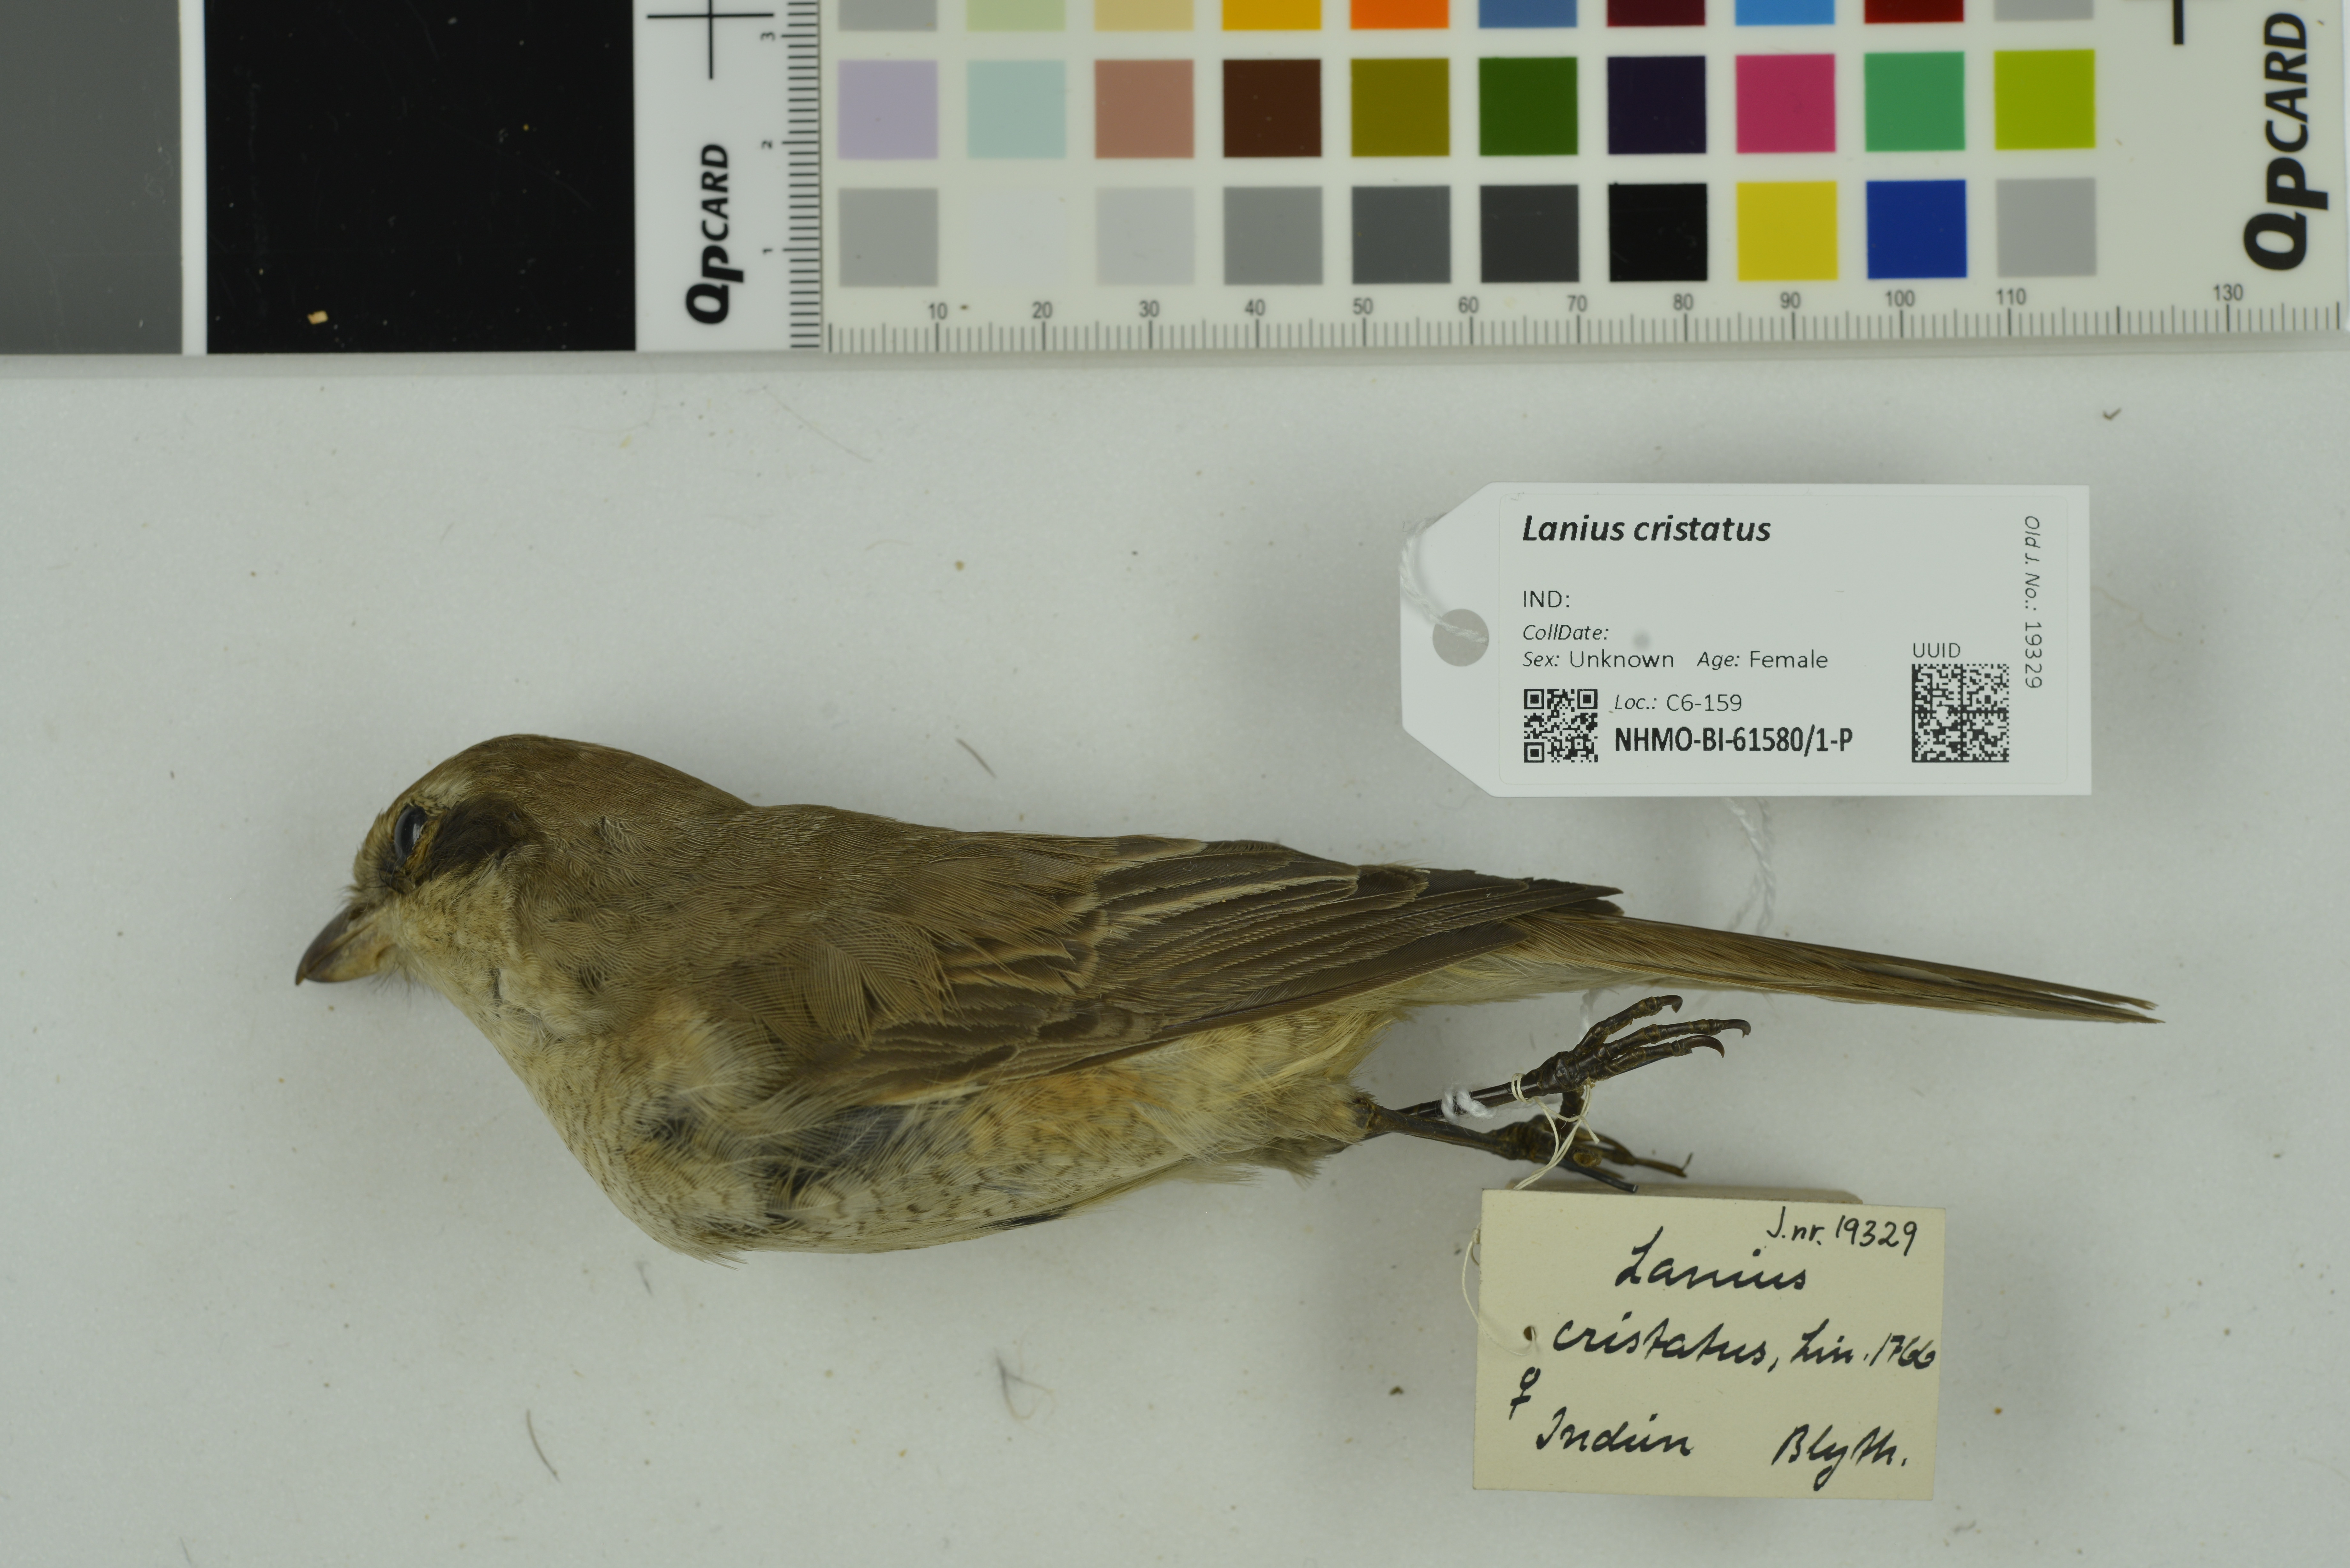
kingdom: Animalia
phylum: Chordata
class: Aves
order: Passeriformes
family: Laniidae
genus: Lanius
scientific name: Lanius cristatus
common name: Brown shrike
